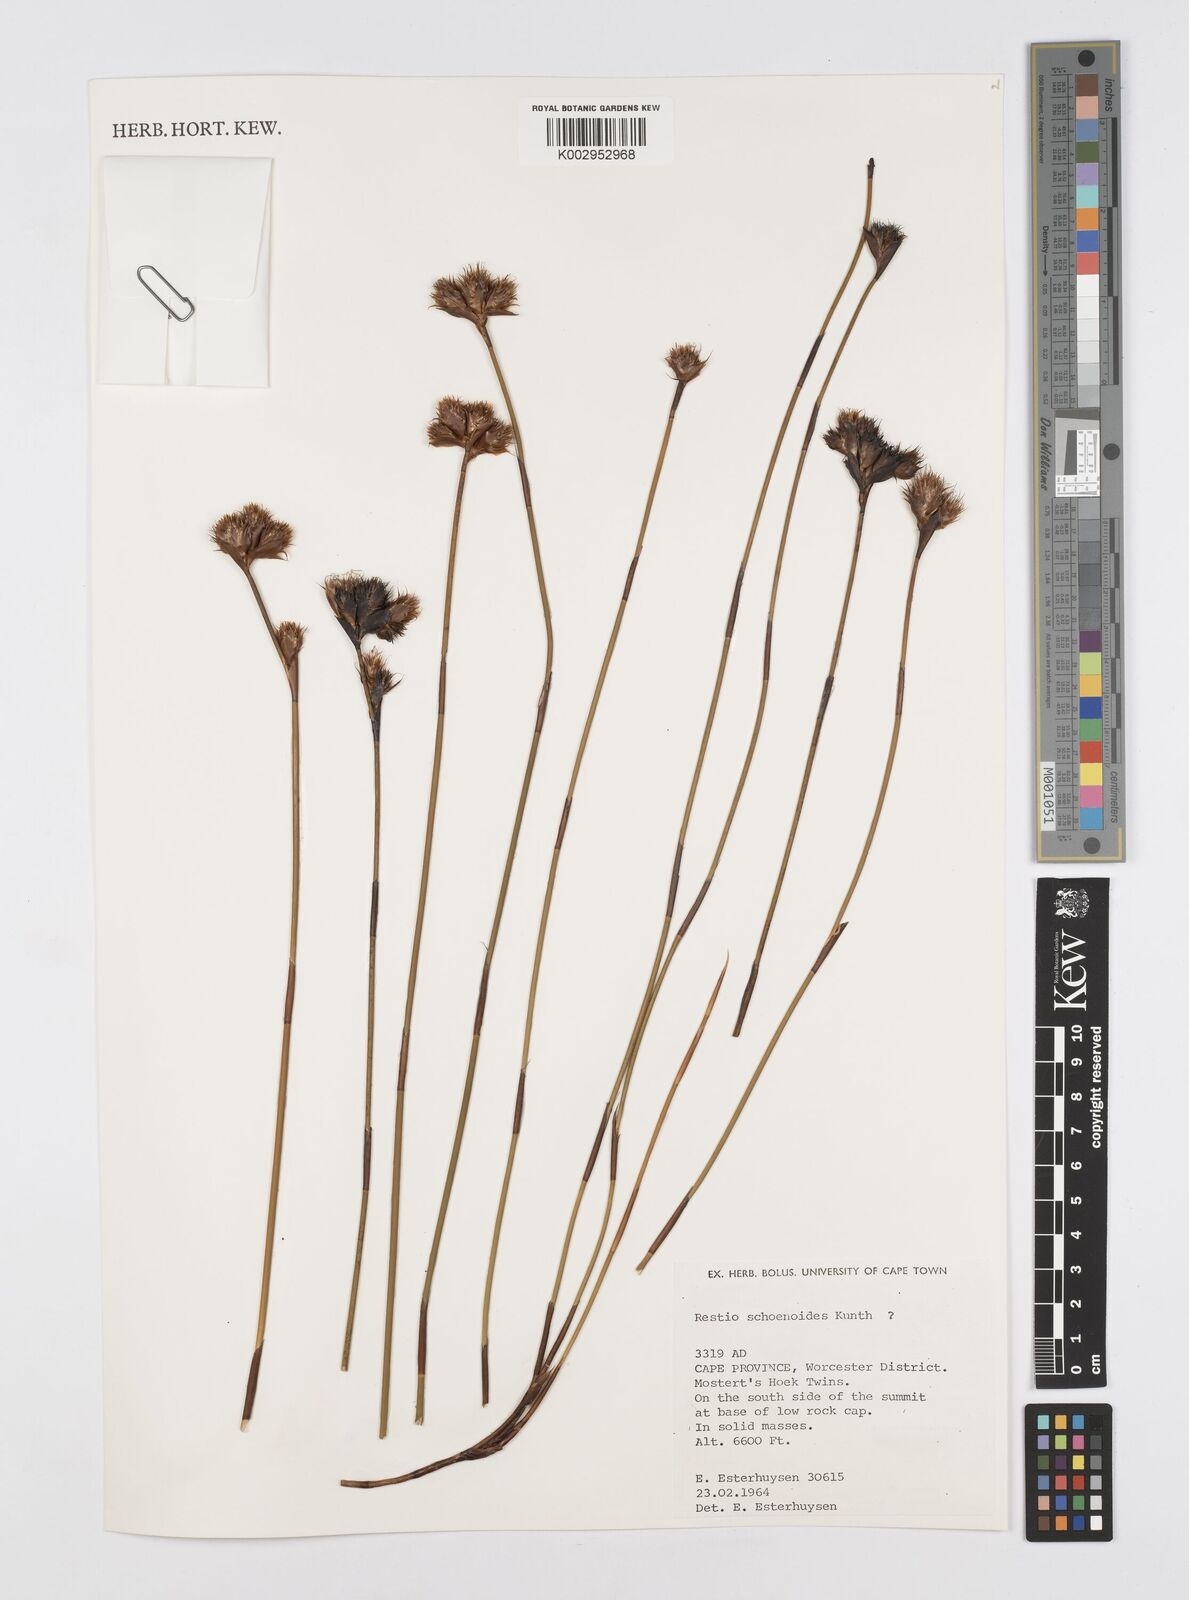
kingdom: Plantae
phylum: Tracheophyta
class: Liliopsida
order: Poales
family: Restionaceae
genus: Restio
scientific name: Restio schoenoides
